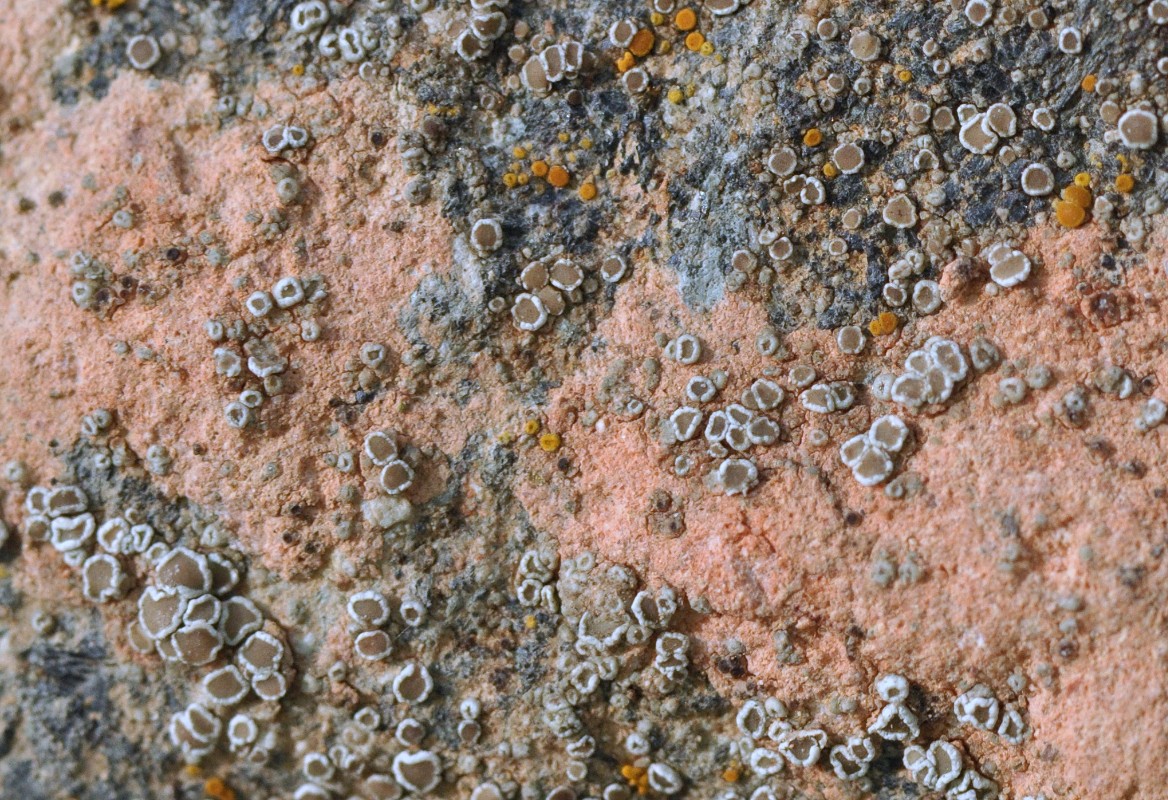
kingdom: Fungi
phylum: Ascomycota
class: Lecanoromycetes
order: Lecanorales
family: Lecanoraceae
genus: Myriolecis
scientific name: Myriolecis crenulata
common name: beton-kantskivelav
